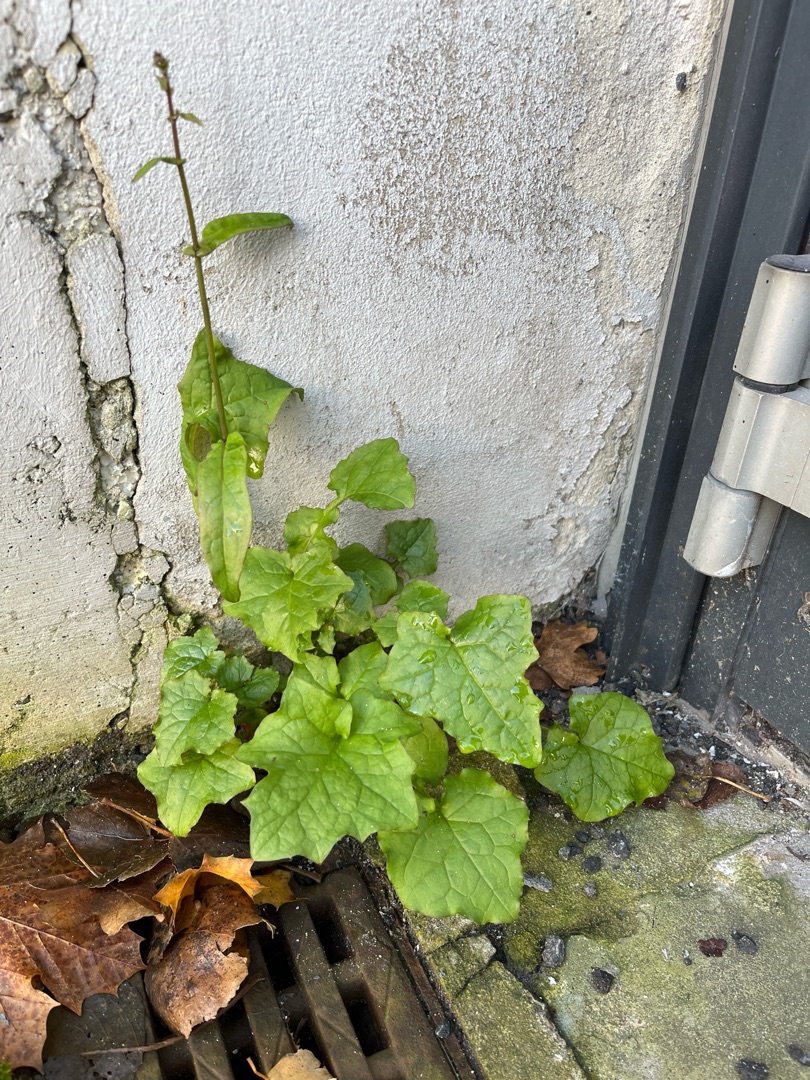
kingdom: Plantae
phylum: Tracheophyta
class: Magnoliopsida
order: Asterales
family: Asteraceae
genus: Mycelis
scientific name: Mycelis muralis
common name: Skov-salat
